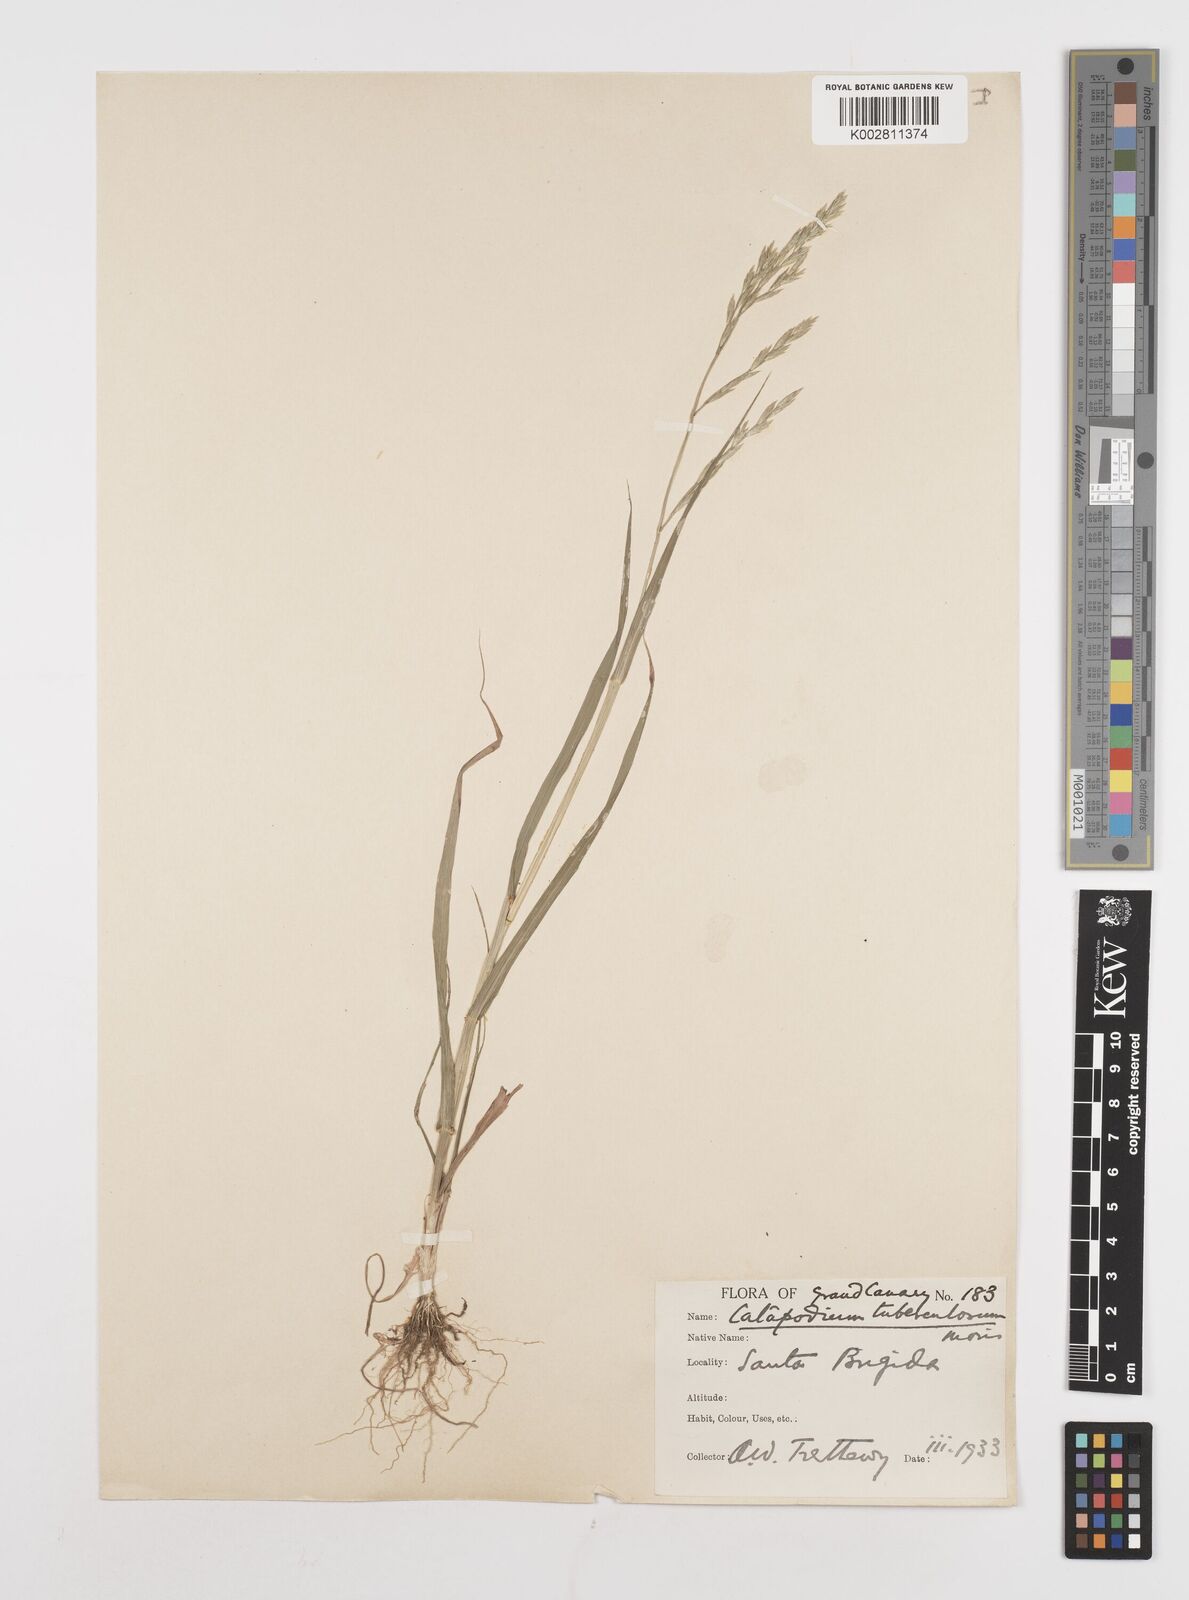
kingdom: Plantae
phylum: Tracheophyta
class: Liliopsida
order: Poales
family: Poaceae
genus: Castellia
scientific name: Castellia tuberculosa
